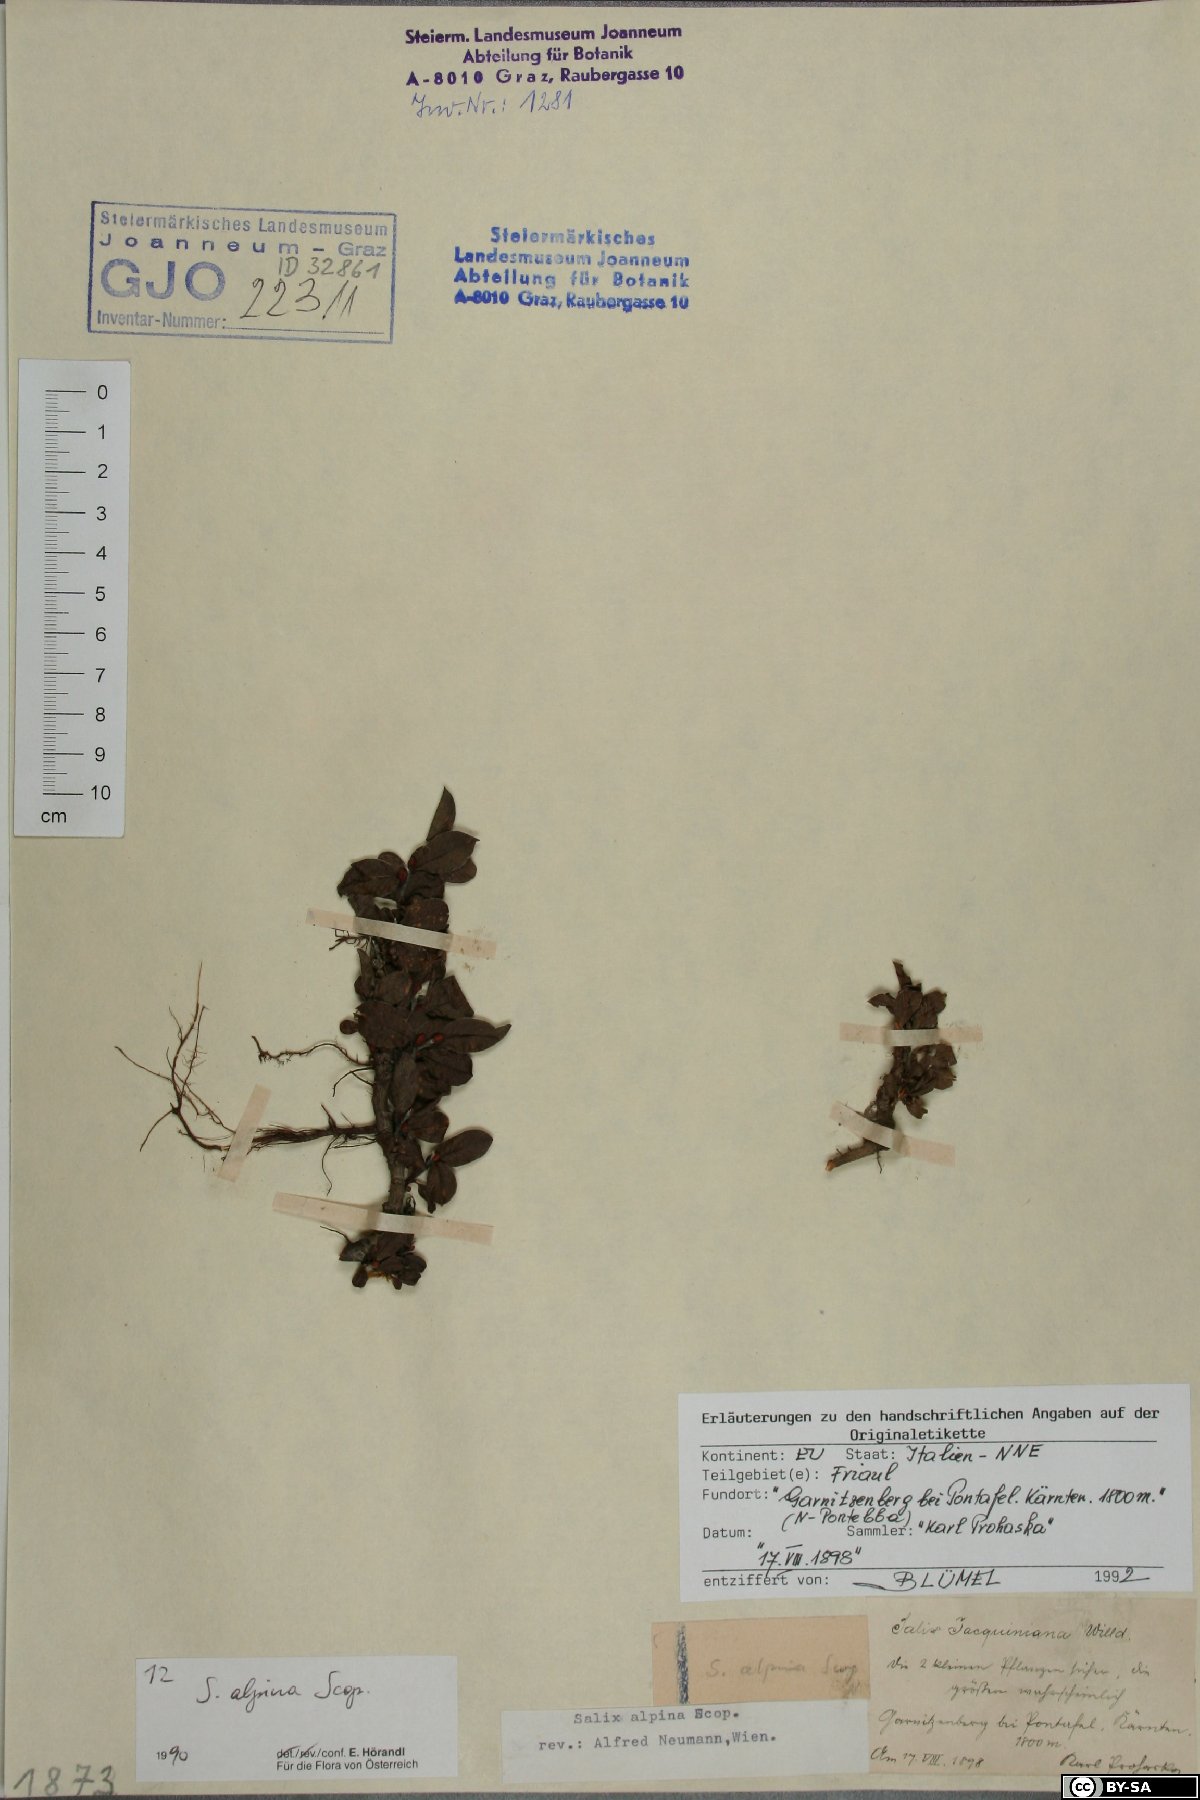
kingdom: Plantae
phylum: Tracheophyta
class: Magnoliopsida
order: Malpighiales
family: Salicaceae
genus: Salix
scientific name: Salix alpina
